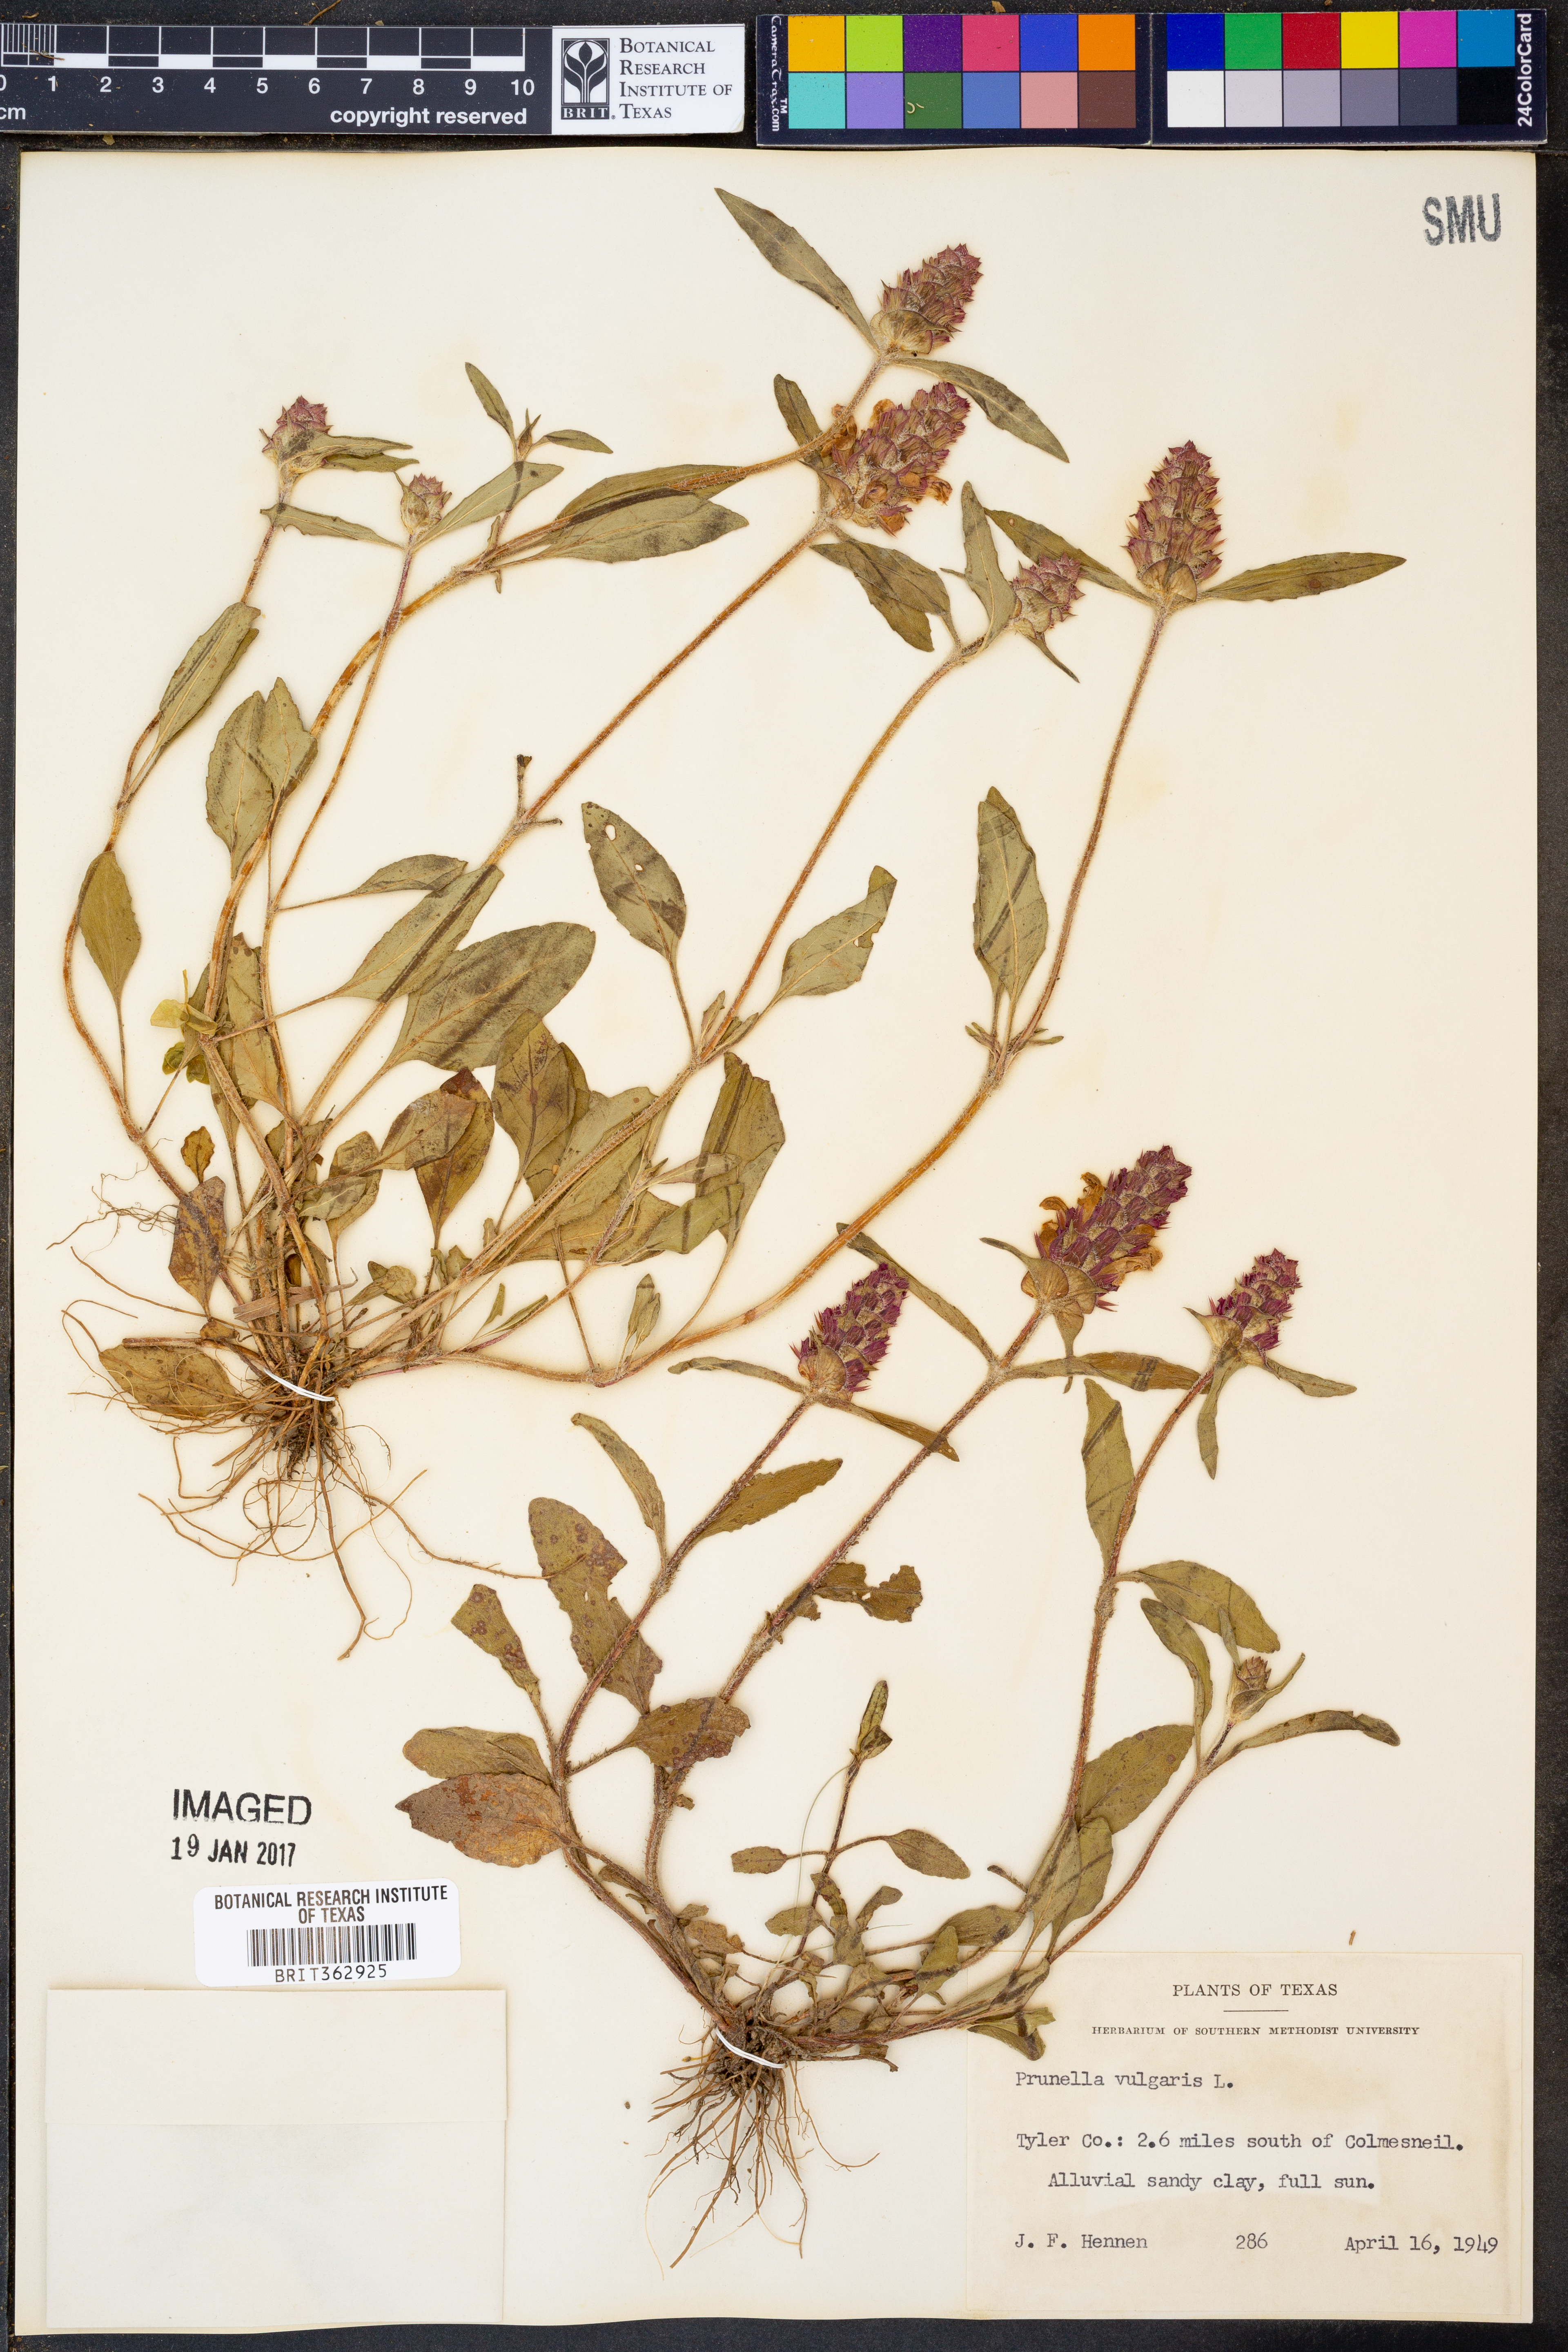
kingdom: Plantae
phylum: Tracheophyta
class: Magnoliopsida
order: Lamiales
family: Lamiaceae
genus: Prunella
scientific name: Prunella vulgaris
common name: Heal-all
